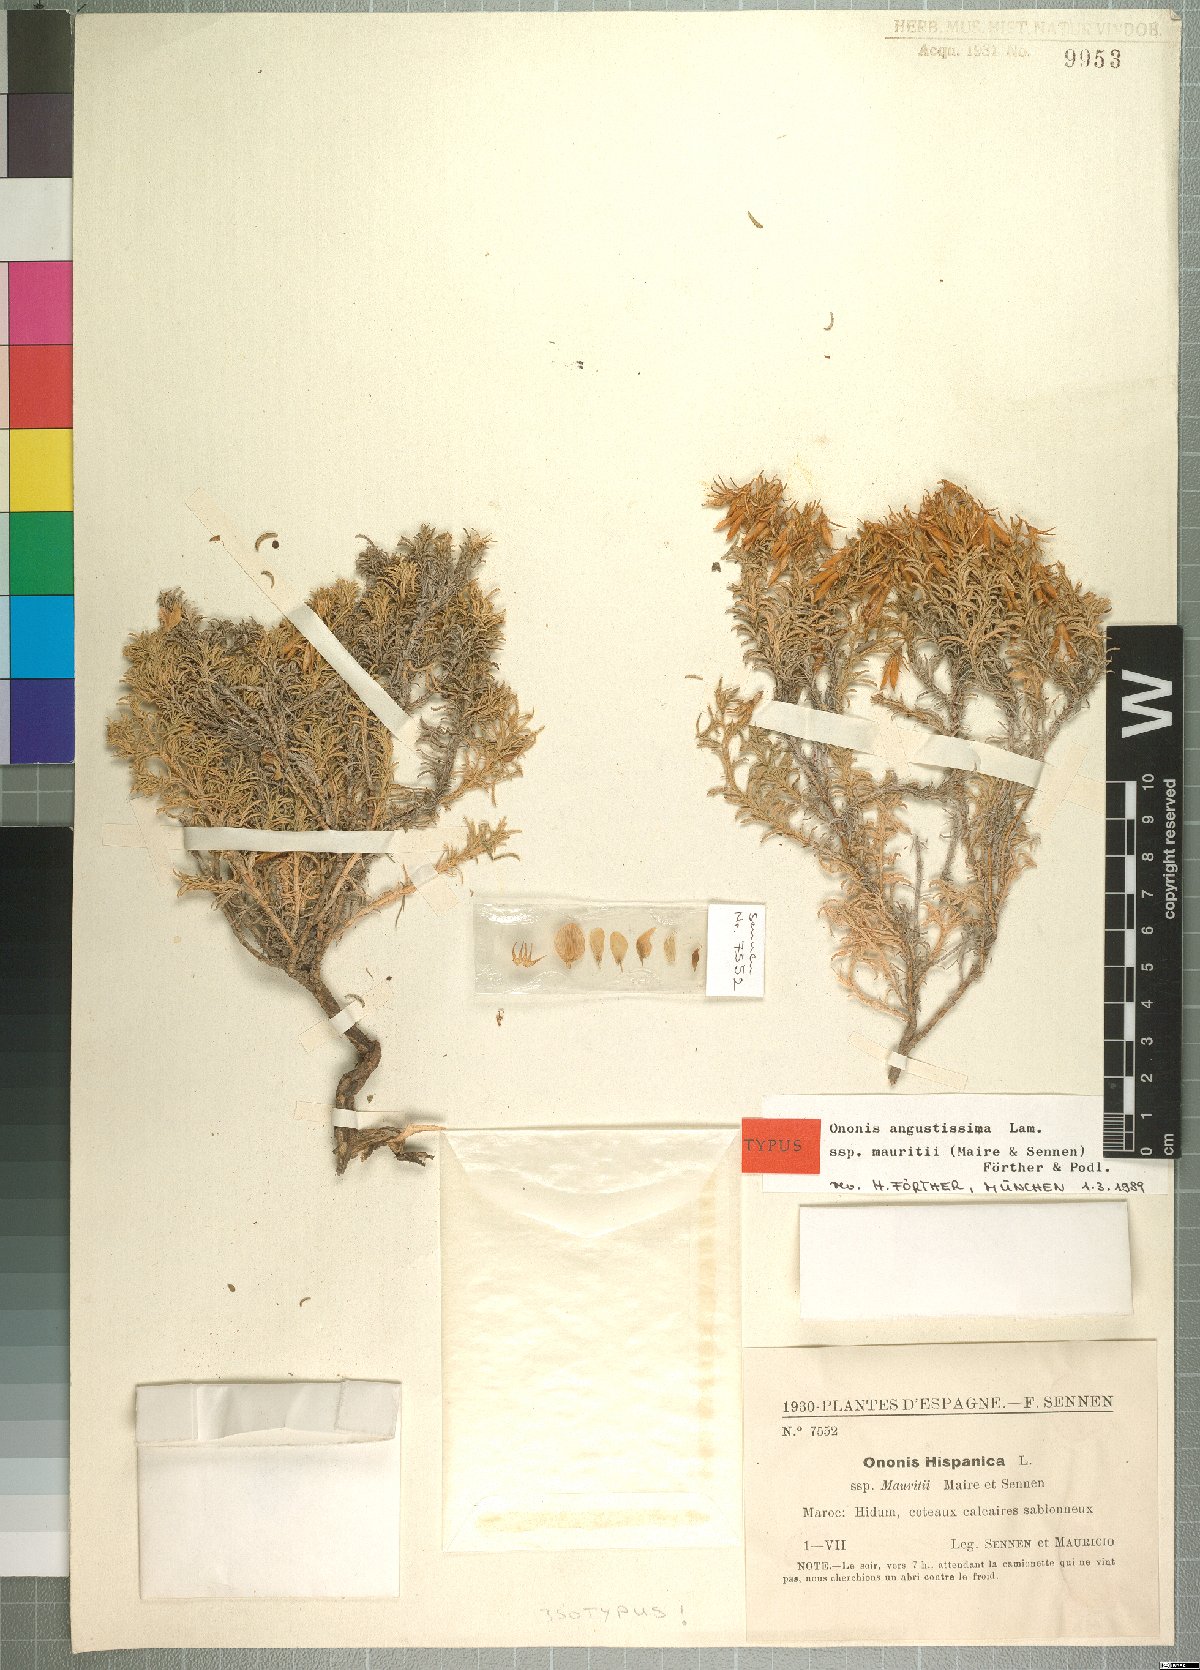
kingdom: Plantae
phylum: Tracheophyta
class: Magnoliopsida
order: Fabales
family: Fabaceae
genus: Ononis
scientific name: Ononis angustissima
